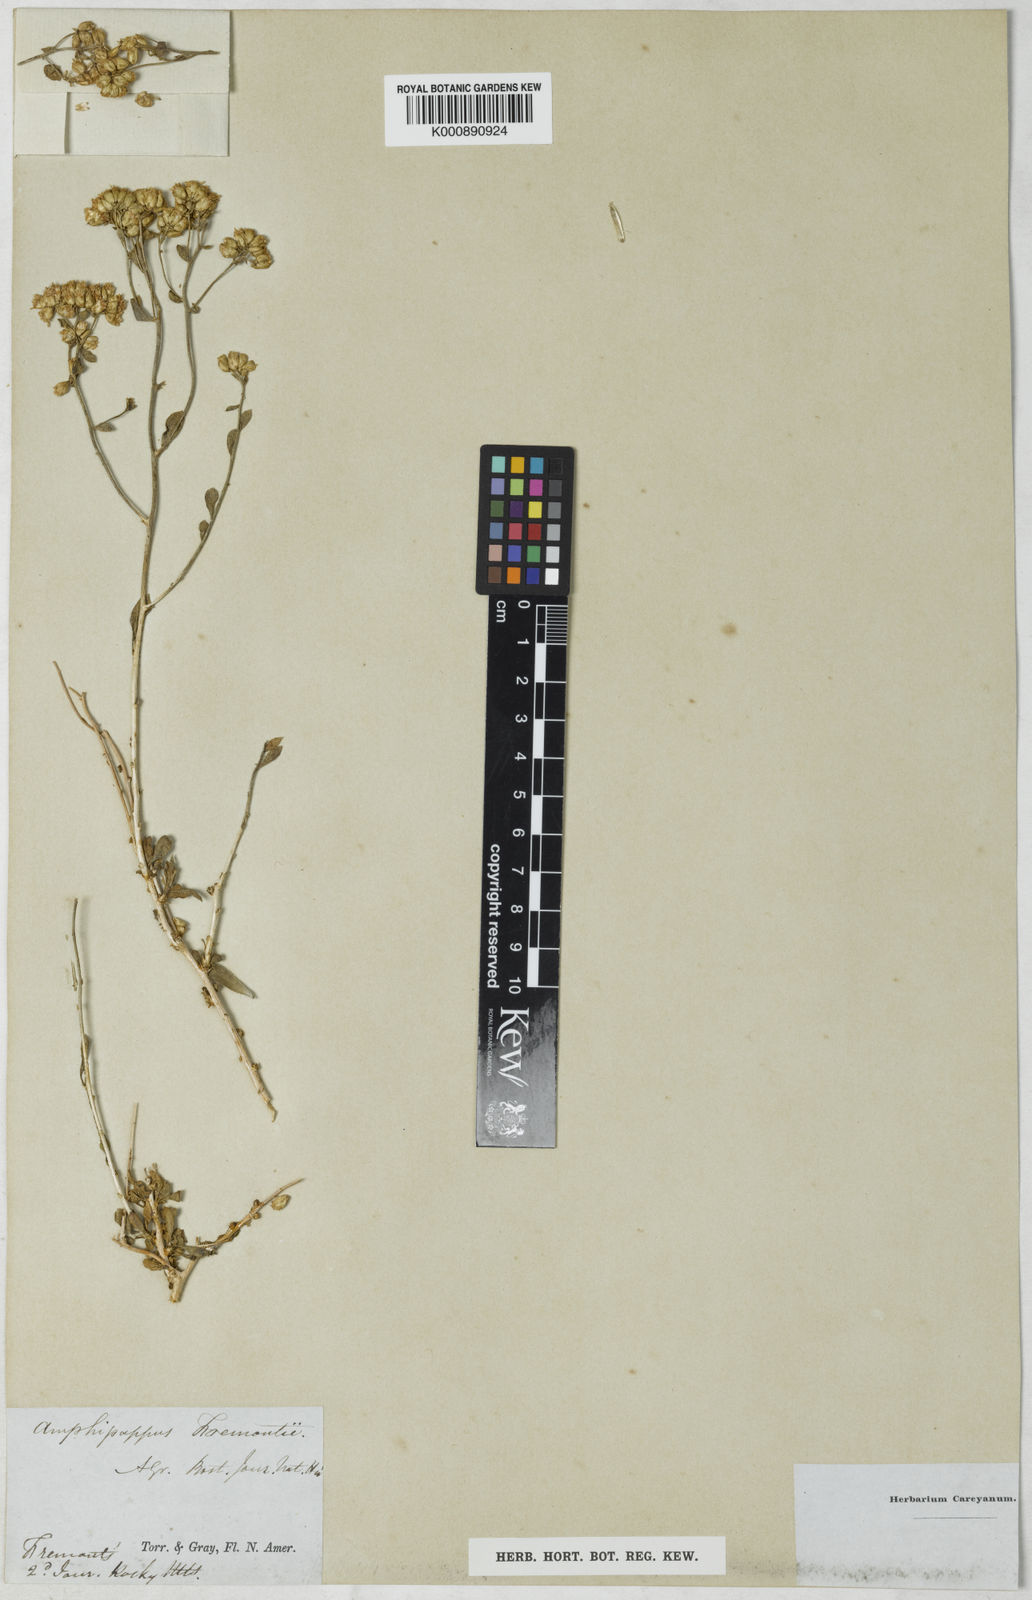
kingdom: Plantae
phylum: Tracheophyta
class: Magnoliopsida
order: Asterales
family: Asteraceae
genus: Amphipappus
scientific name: Amphipappus fremontii
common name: Fremont's chaffbush
